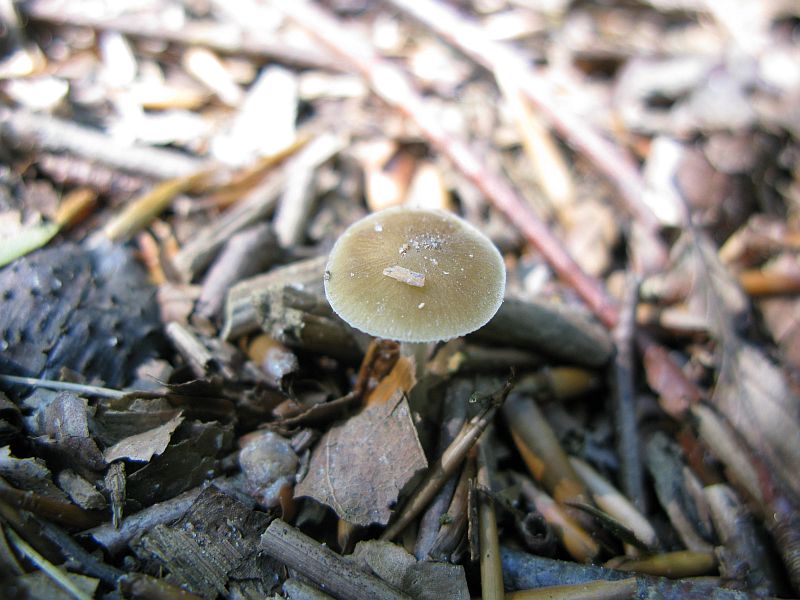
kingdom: Fungi
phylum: Basidiomycota
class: Agaricomycetes
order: Agaricales
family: Porotheleaceae
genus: Hydropodia
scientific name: Hydropodia subalpina
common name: vår-fnugfod
